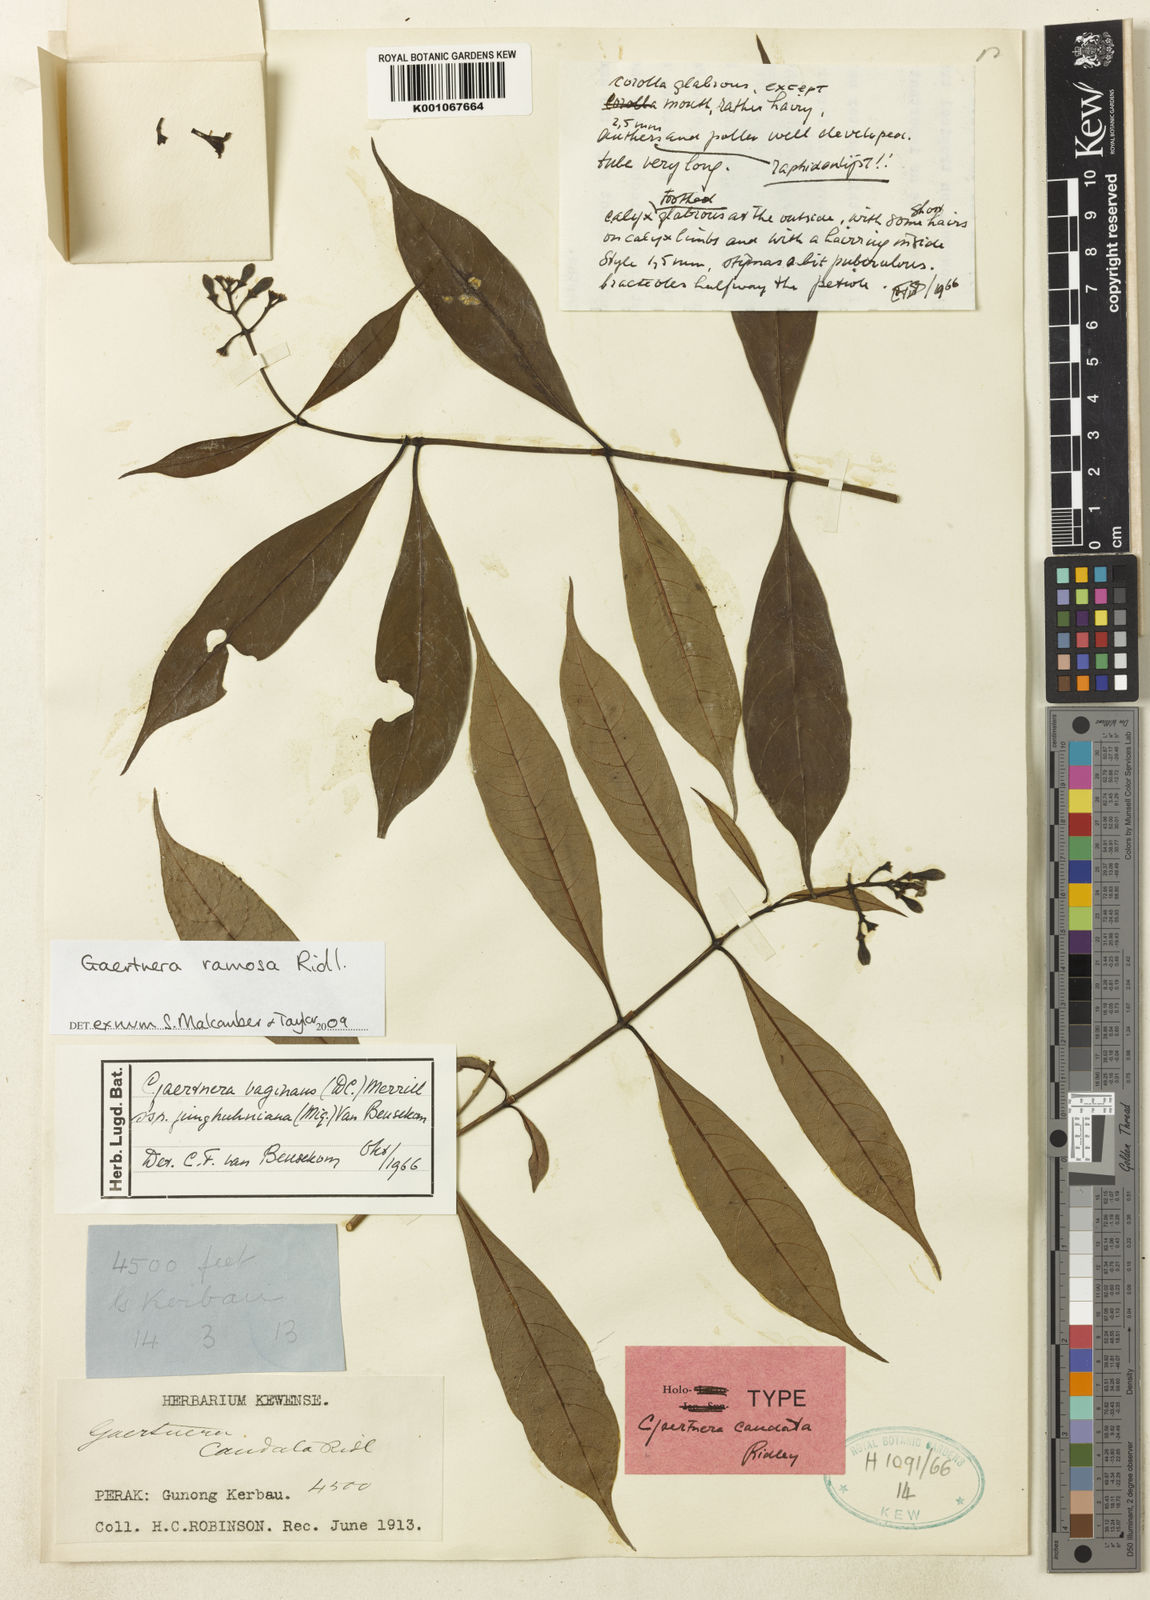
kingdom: Plantae
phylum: Tracheophyta
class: Magnoliopsida
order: Gentianales
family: Rubiaceae
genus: Gaertnera
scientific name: Gaertnera ramosa
